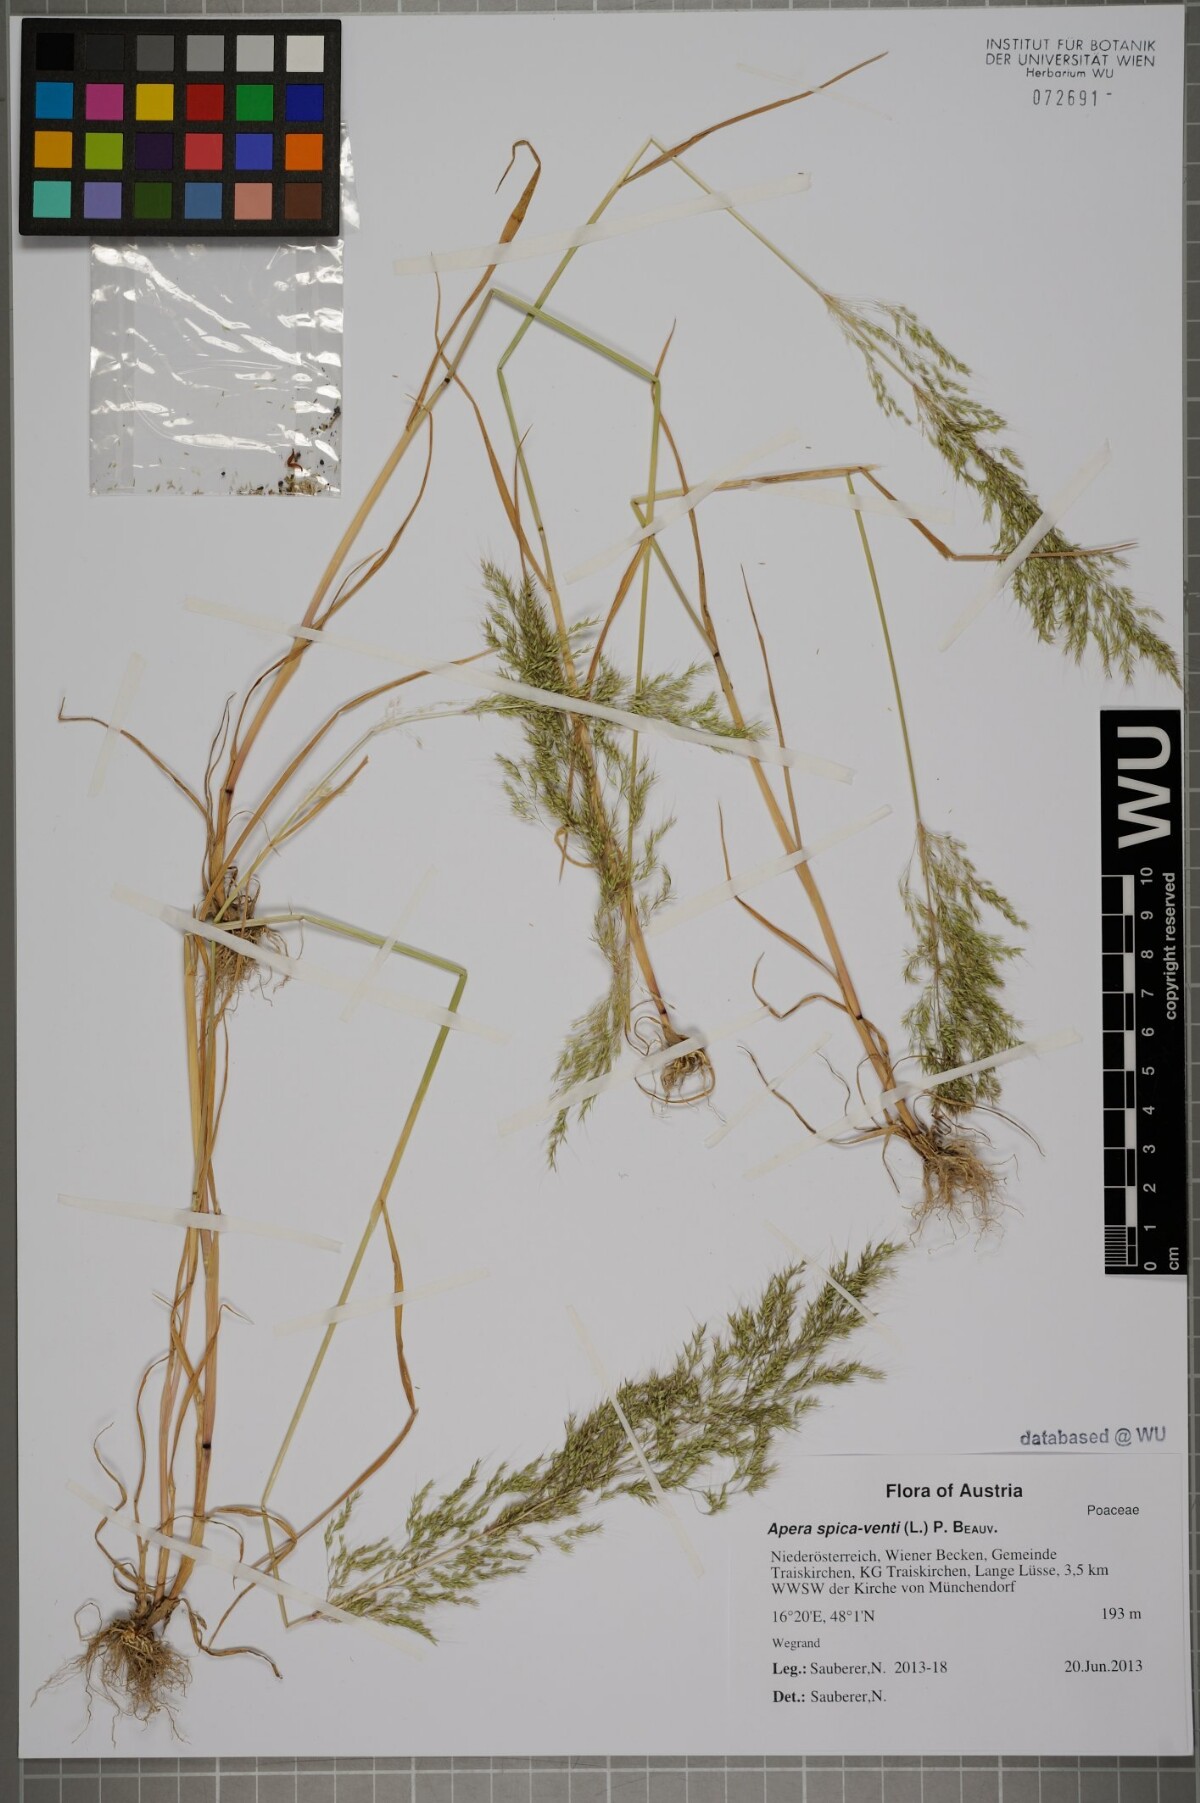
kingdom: Plantae
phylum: Tracheophyta
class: Liliopsida
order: Poales
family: Poaceae
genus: Apera
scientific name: Apera spica-venti
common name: Loose silky-bent
